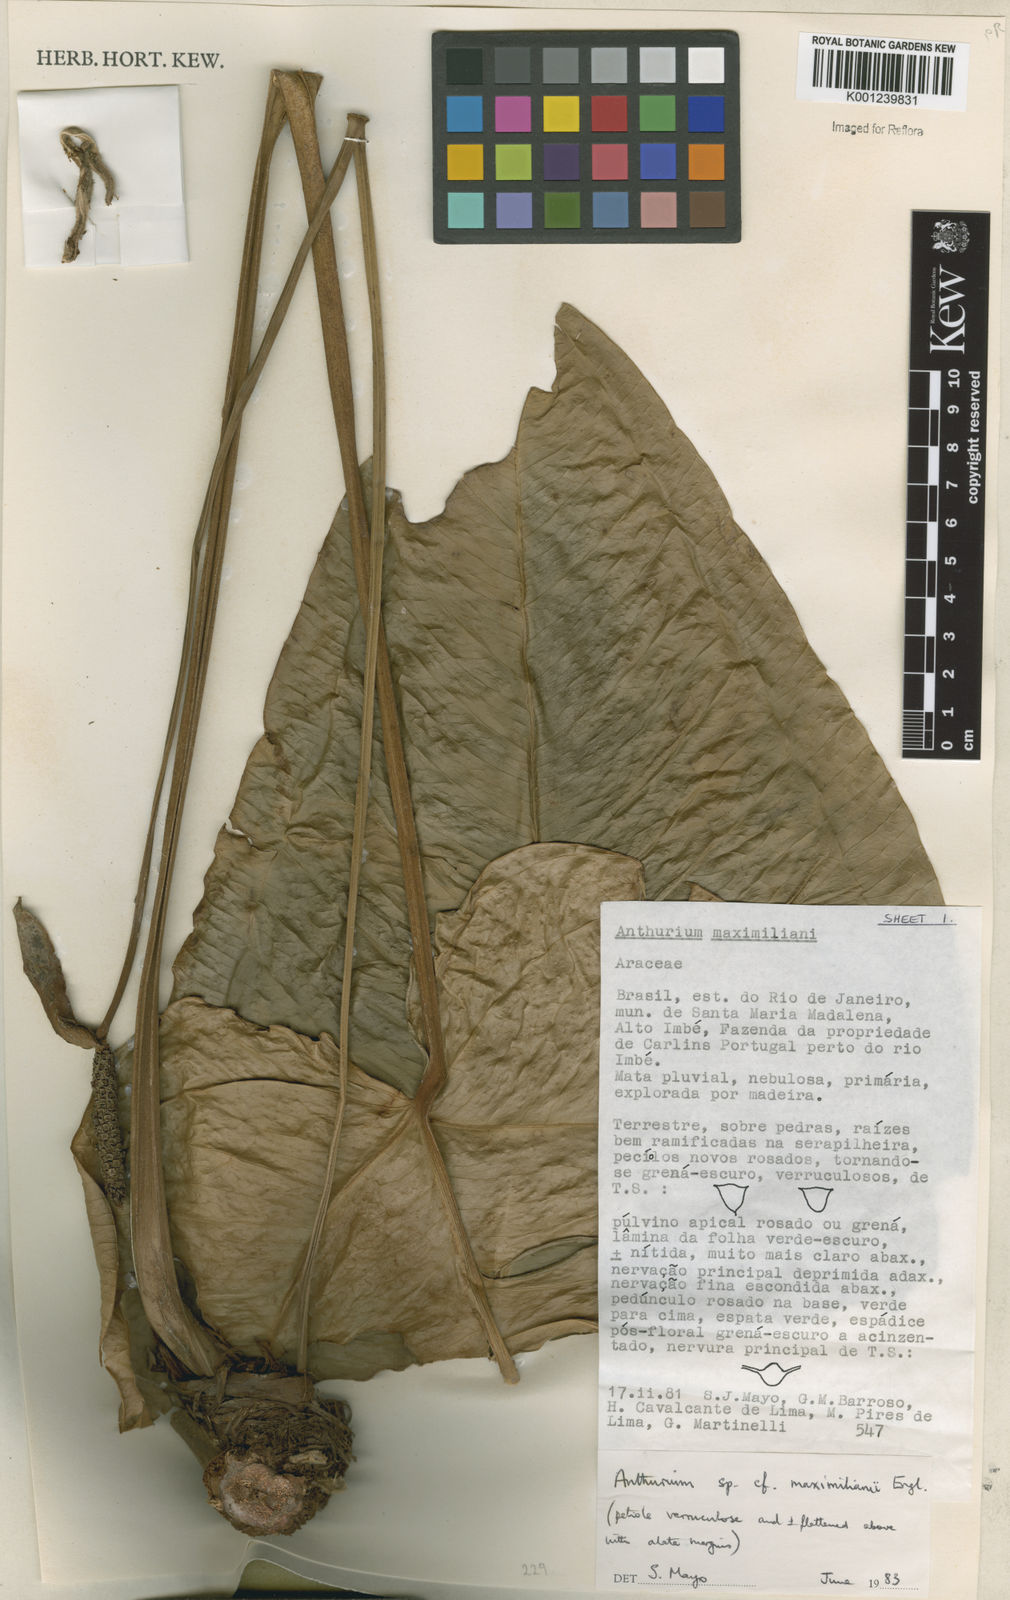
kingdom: Plantae
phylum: Tracheophyta
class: Liliopsida
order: Alismatales
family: Araceae
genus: Anthurium
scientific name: Anthurium
